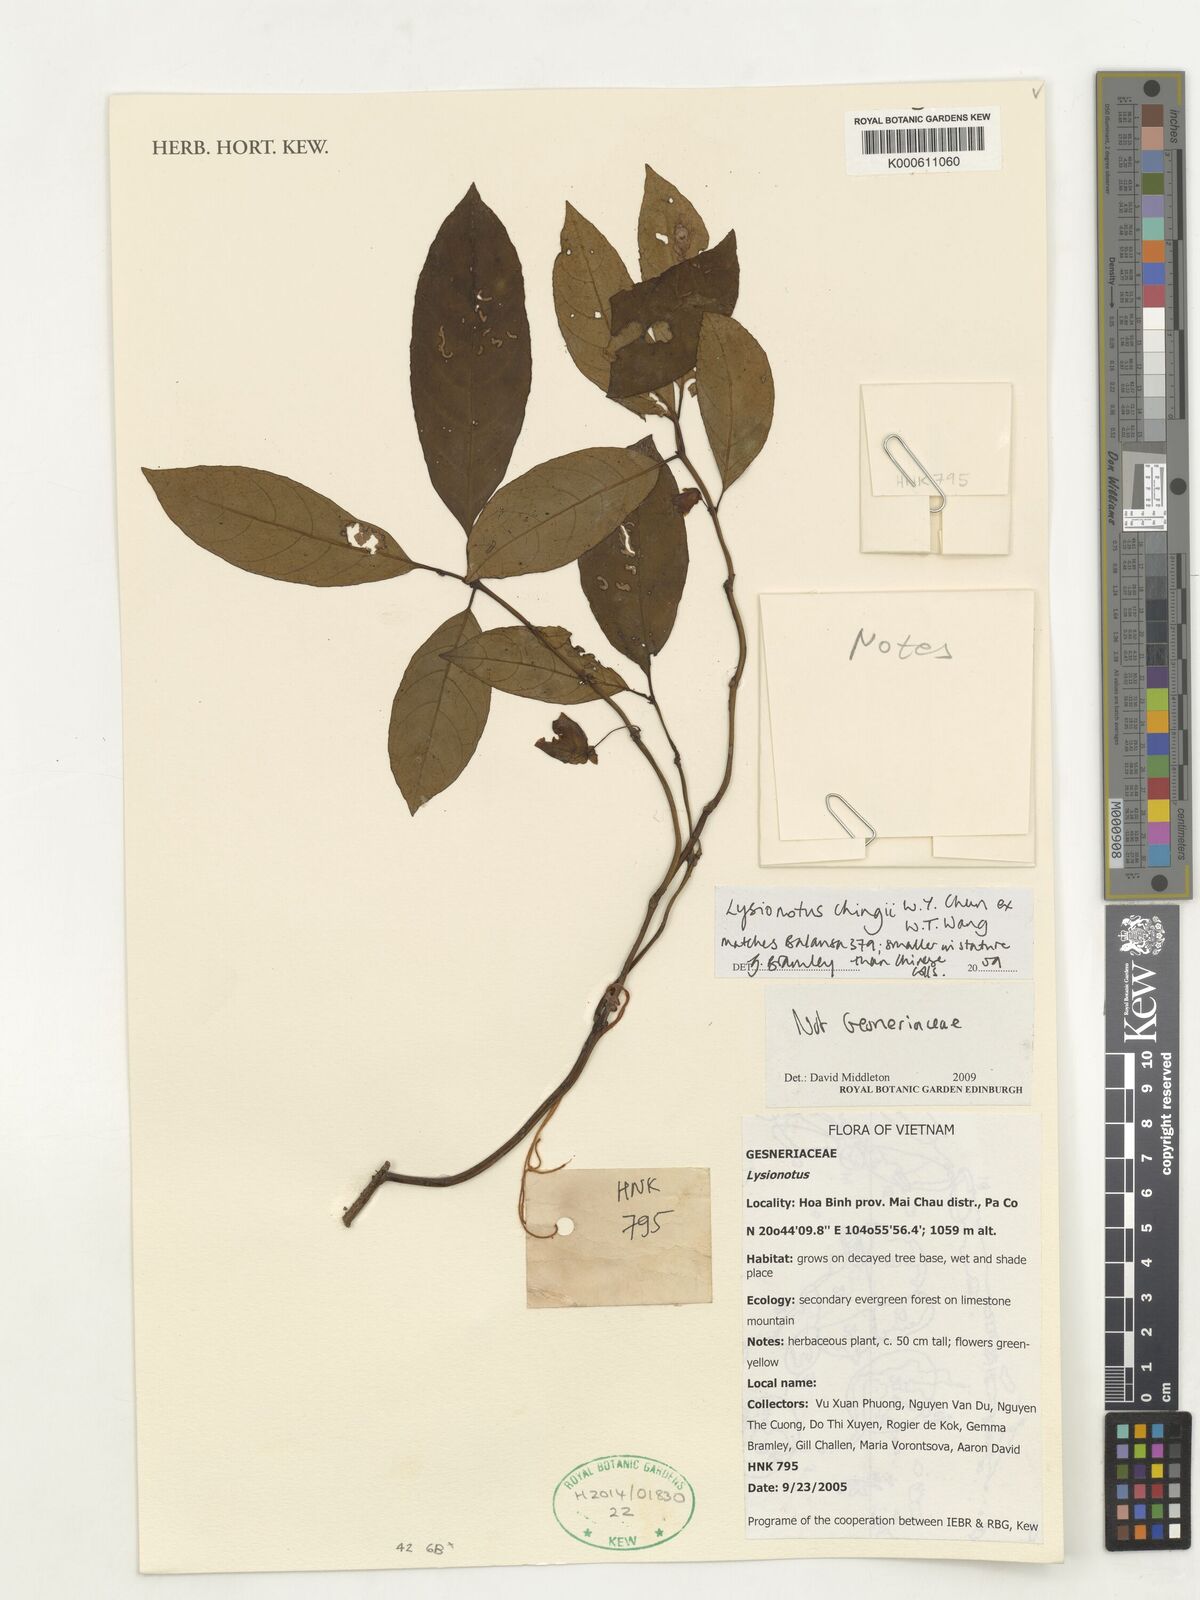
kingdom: Plantae
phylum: Tracheophyta
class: Magnoliopsida
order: Lamiales
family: Gesneriaceae
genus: Lysionotus
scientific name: Lysionotus chingii
